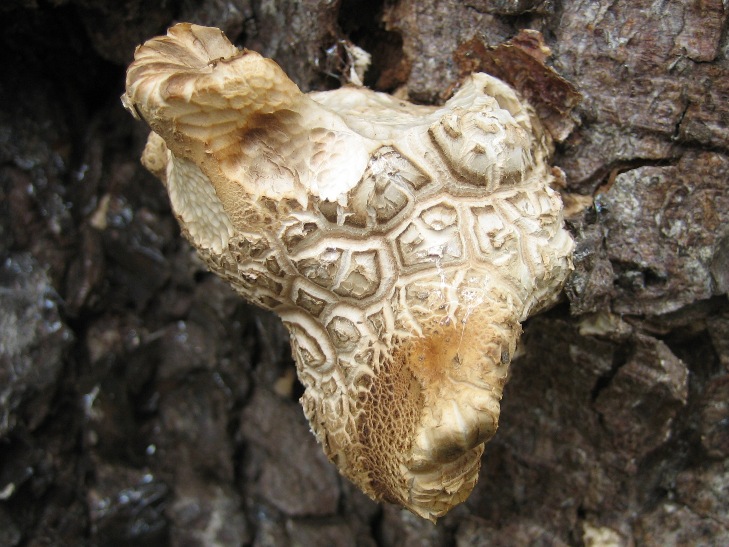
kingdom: Fungi
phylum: Basidiomycota
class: Agaricomycetes
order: Polyporales
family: Polyporaceae
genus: Cerioporus
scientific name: Cerioporus squamosus
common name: skællet stilkporesvamp
